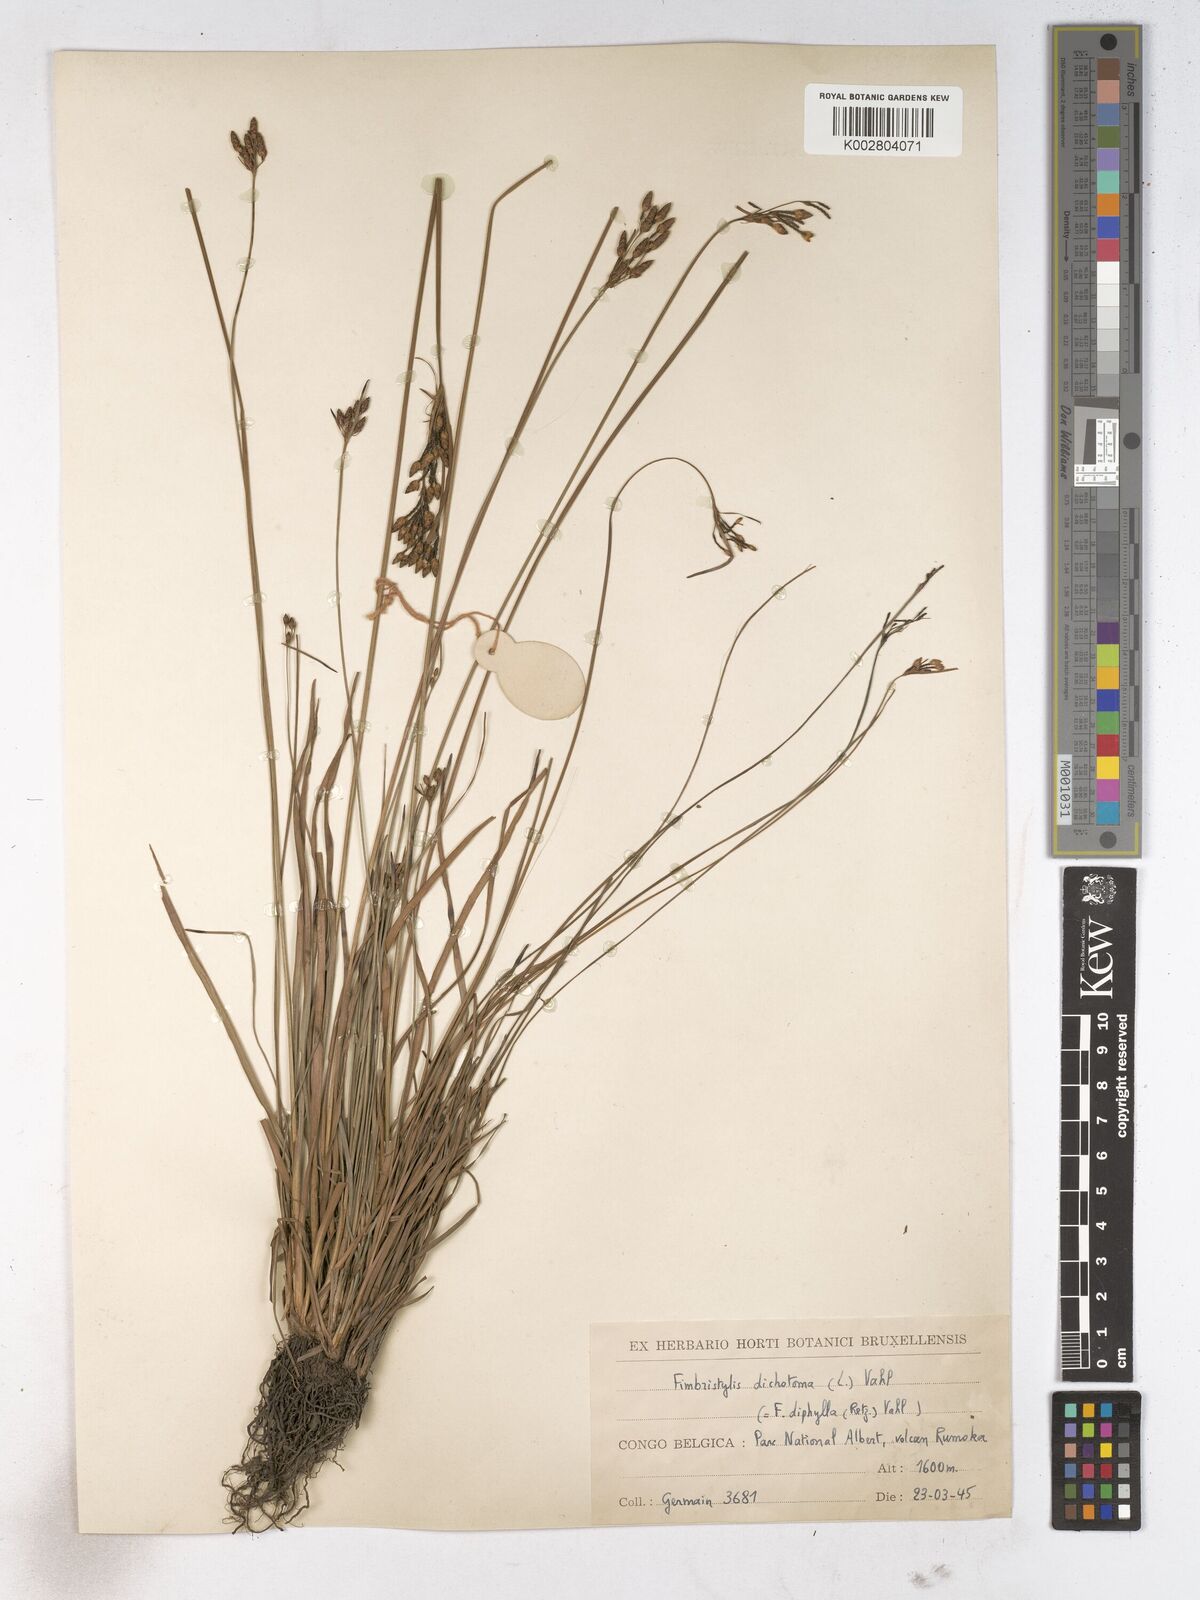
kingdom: Plantae
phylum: Tracheophyta
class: Liliopsida
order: Poales
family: Cyperaceae
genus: Fimbristylis
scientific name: Fimbristylis dichotoma
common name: Forked fimbry
